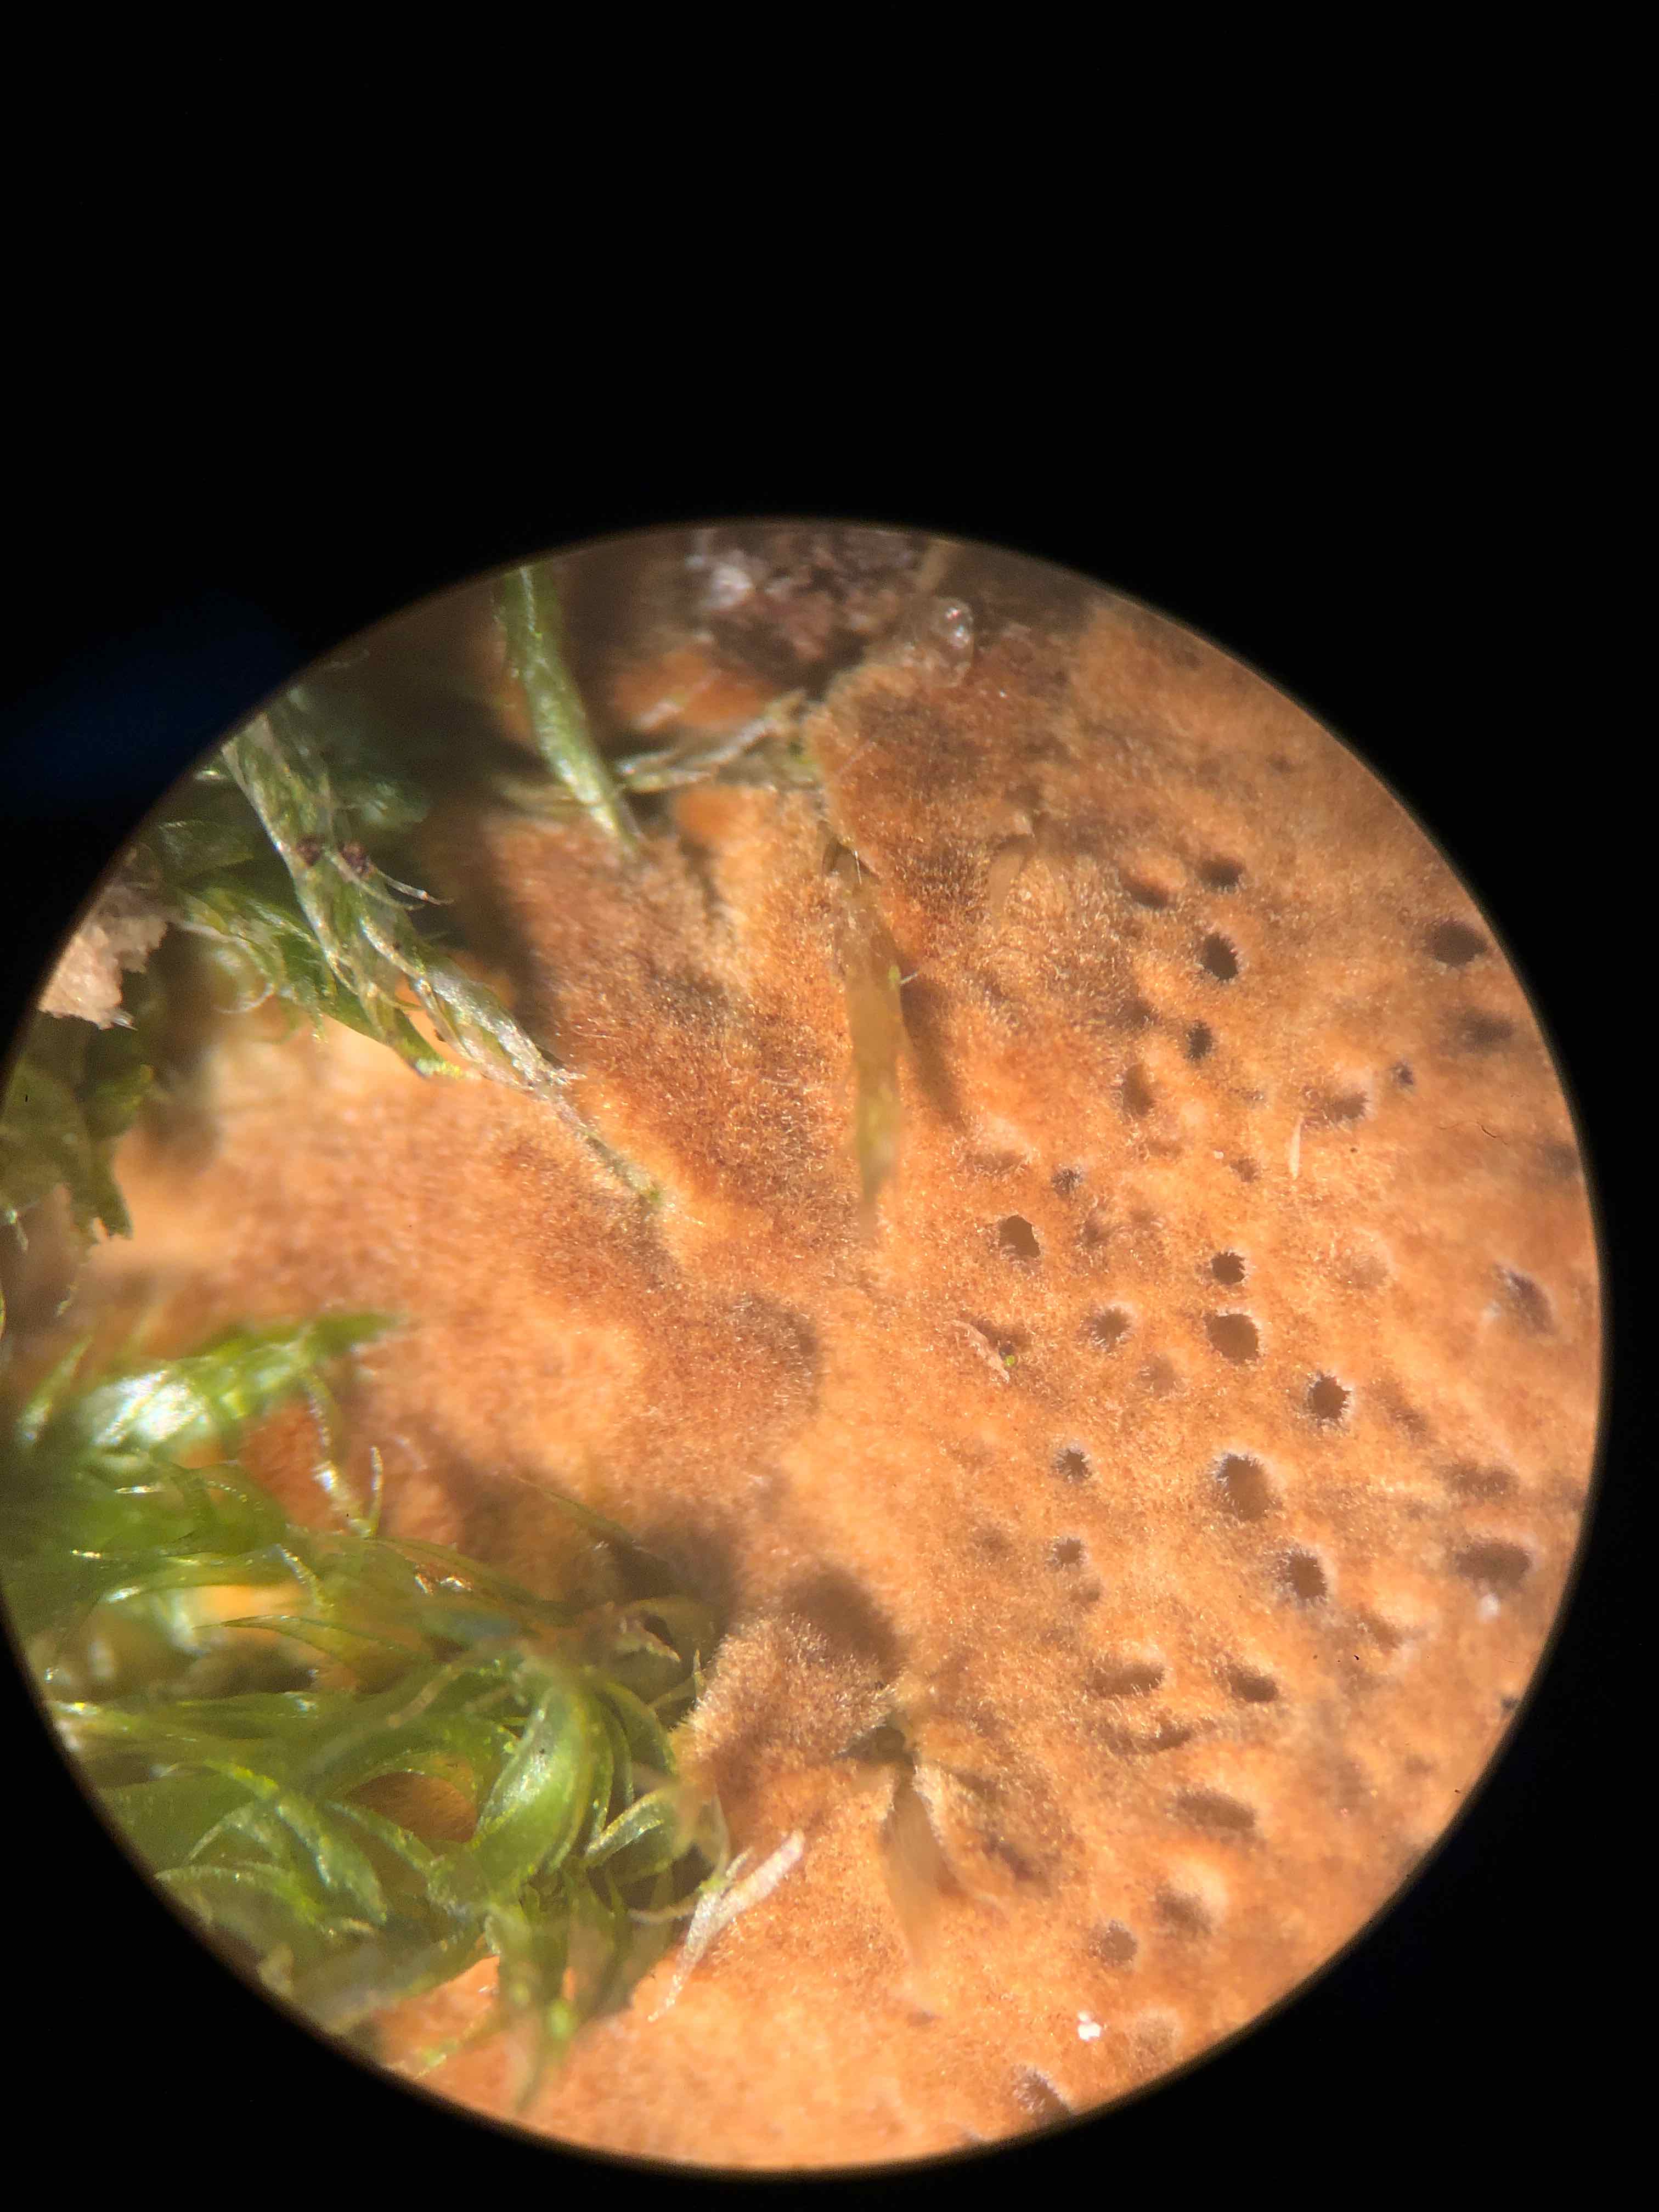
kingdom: Fungi
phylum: Basidiomycota
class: Agaricomycetes
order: Hymenochaetales
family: Hymenochaetaceae
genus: Fuscoporia
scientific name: Fuscoporia ferrea
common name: skorpe-ildporesvamp
